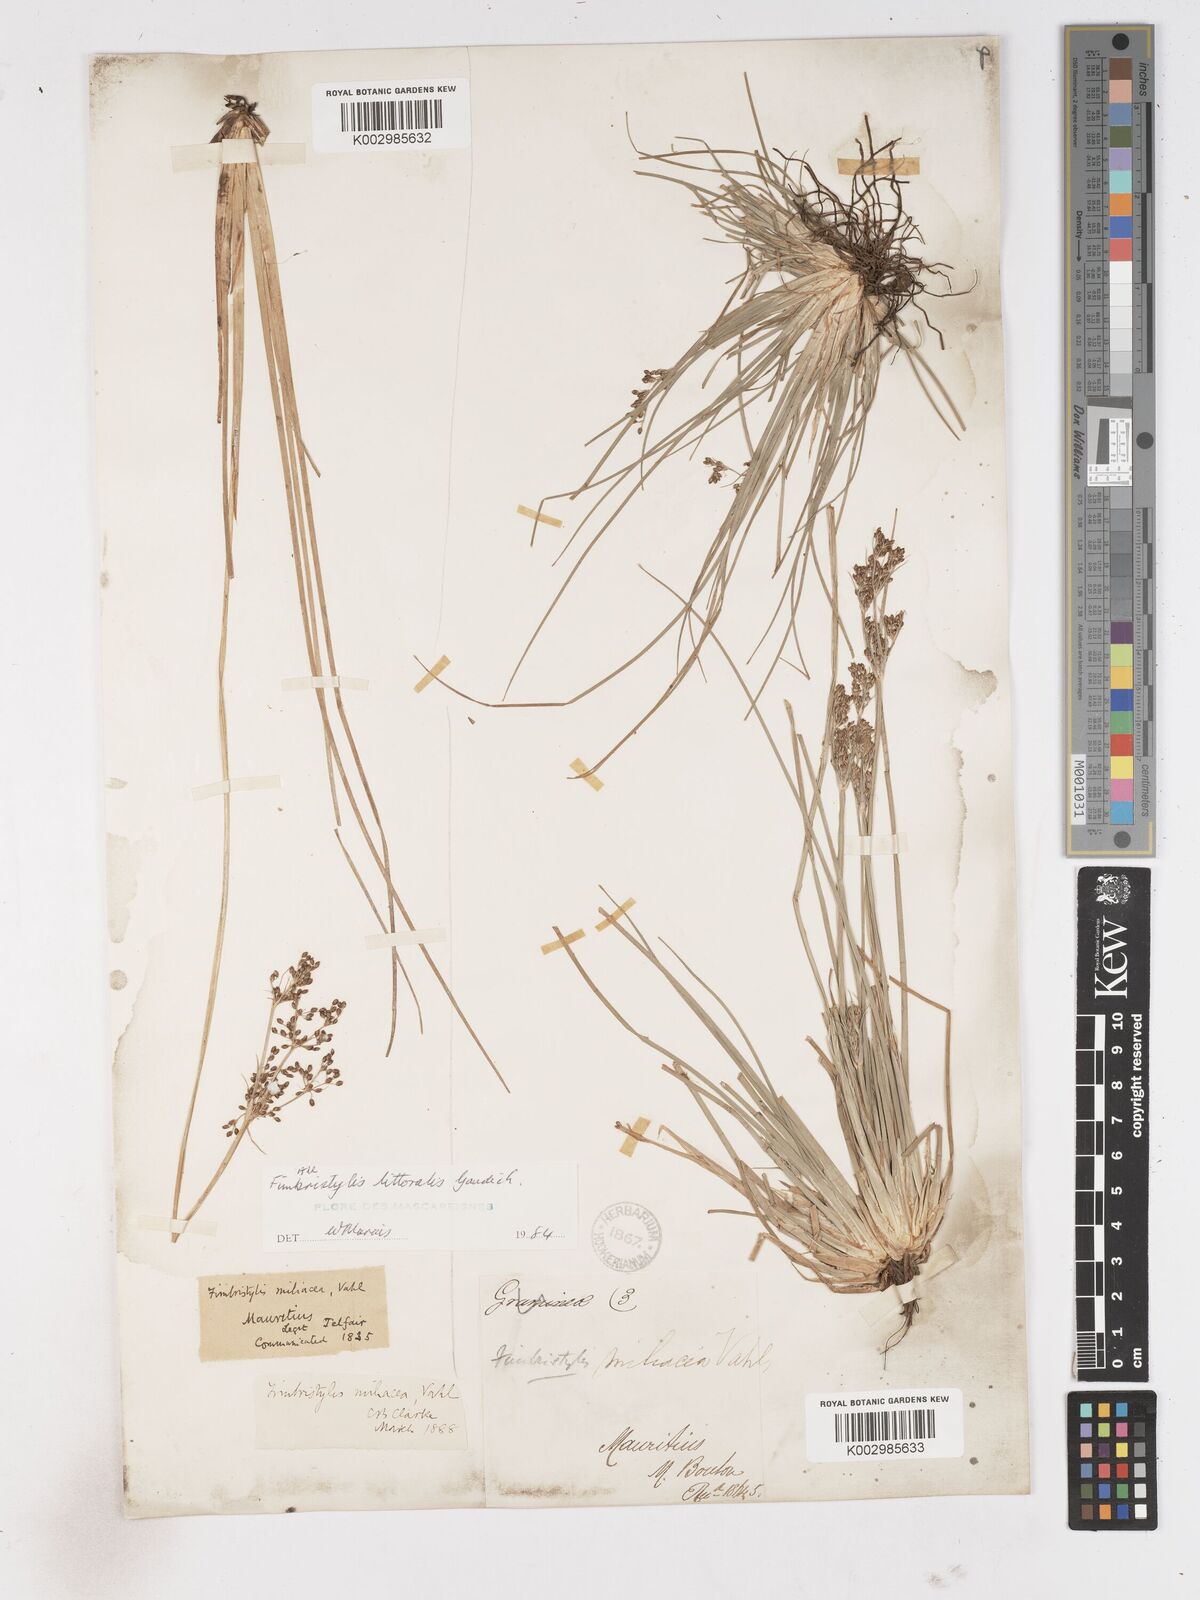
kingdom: Plantae
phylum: Tracheophyta
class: Liliopsida
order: Poales
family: Cyperaceae
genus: Fimbristylis
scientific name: Fimbristylis littoralis
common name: Fimbry
